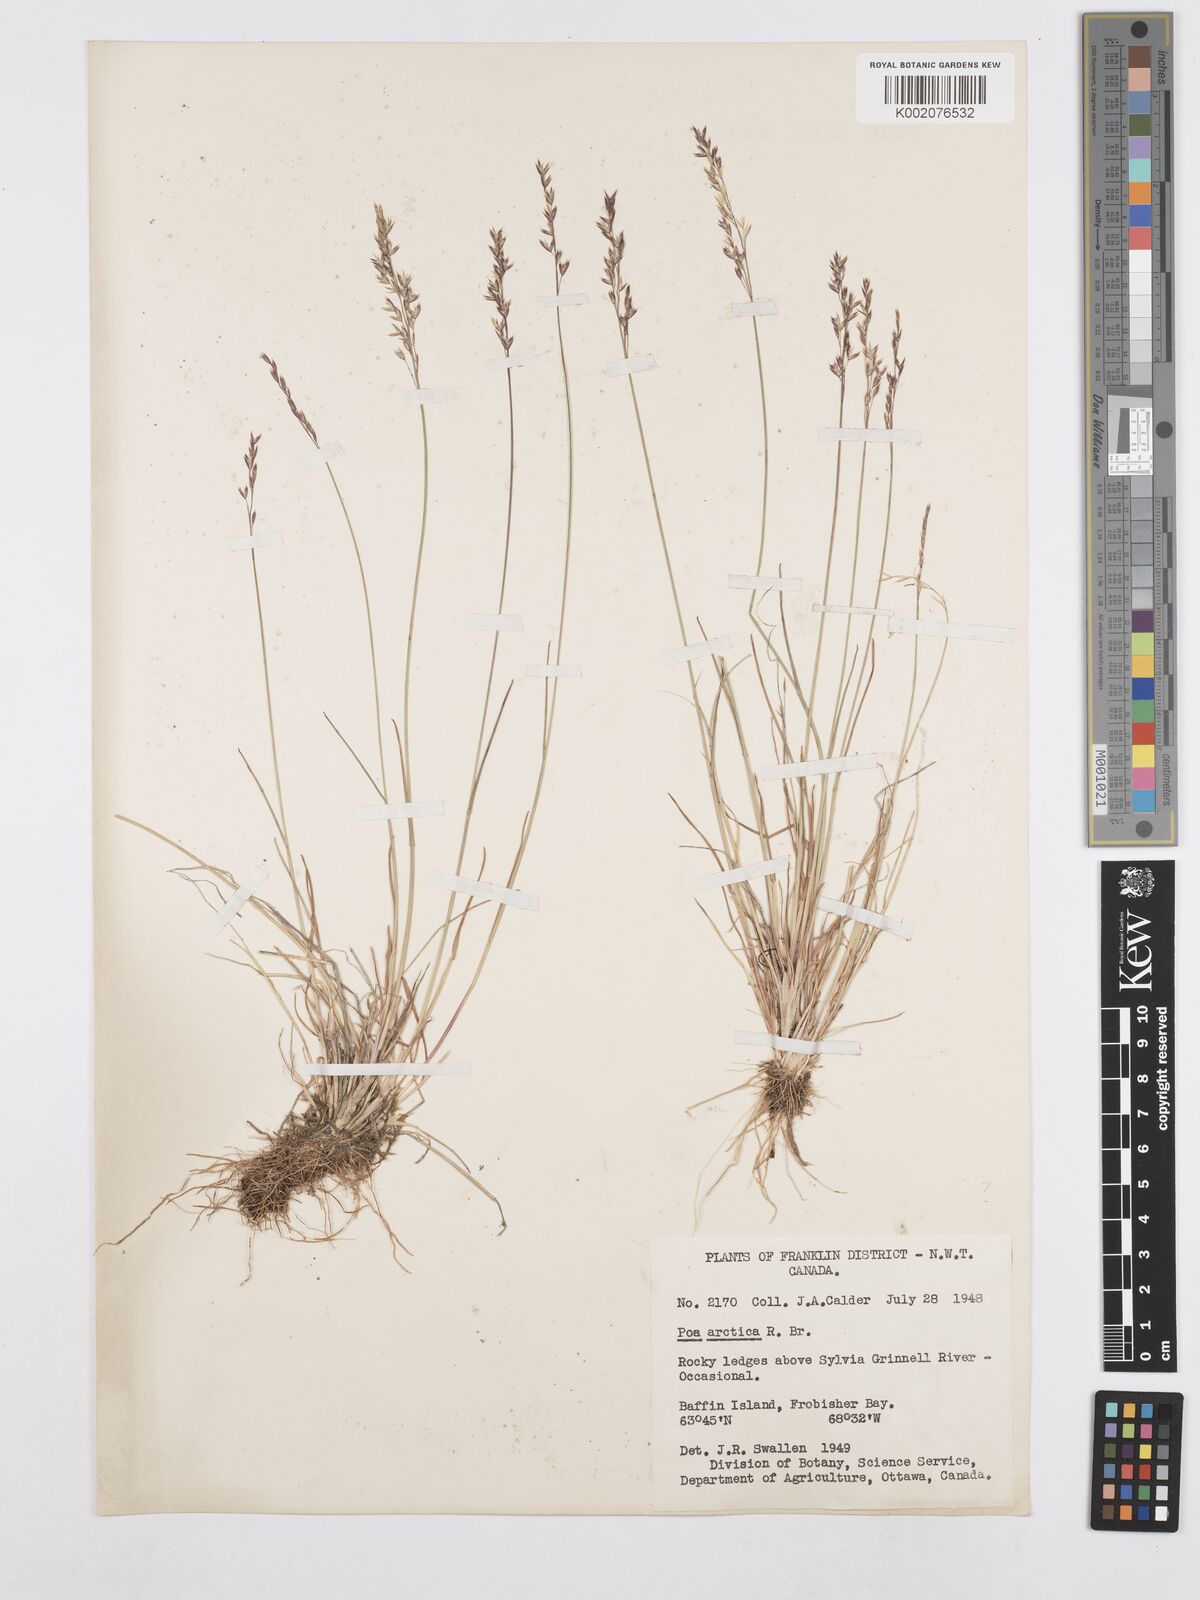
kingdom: Plantae
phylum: Tracheophyta
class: Liliopsida
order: Poales
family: Poaceae
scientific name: Poaceae
